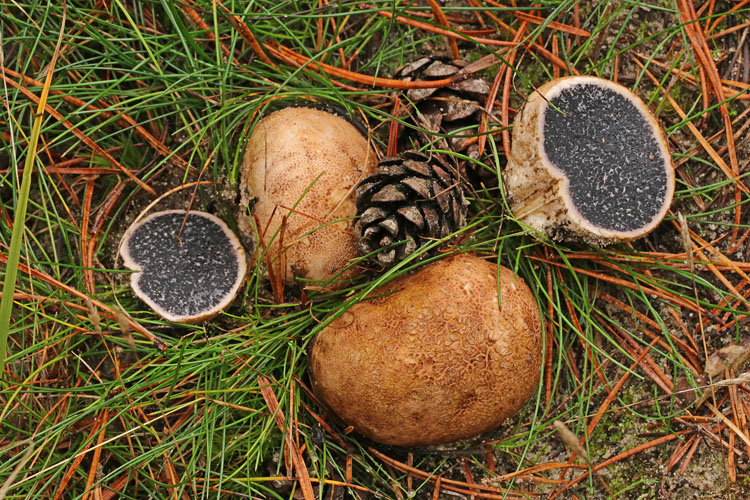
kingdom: Fungi
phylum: Basidiomycota
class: Agaricomycetes
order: Boletales
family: Sclerodermataceae
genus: Scleroderma
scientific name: Scleroderma citrinum
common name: almindelig bruskbold
